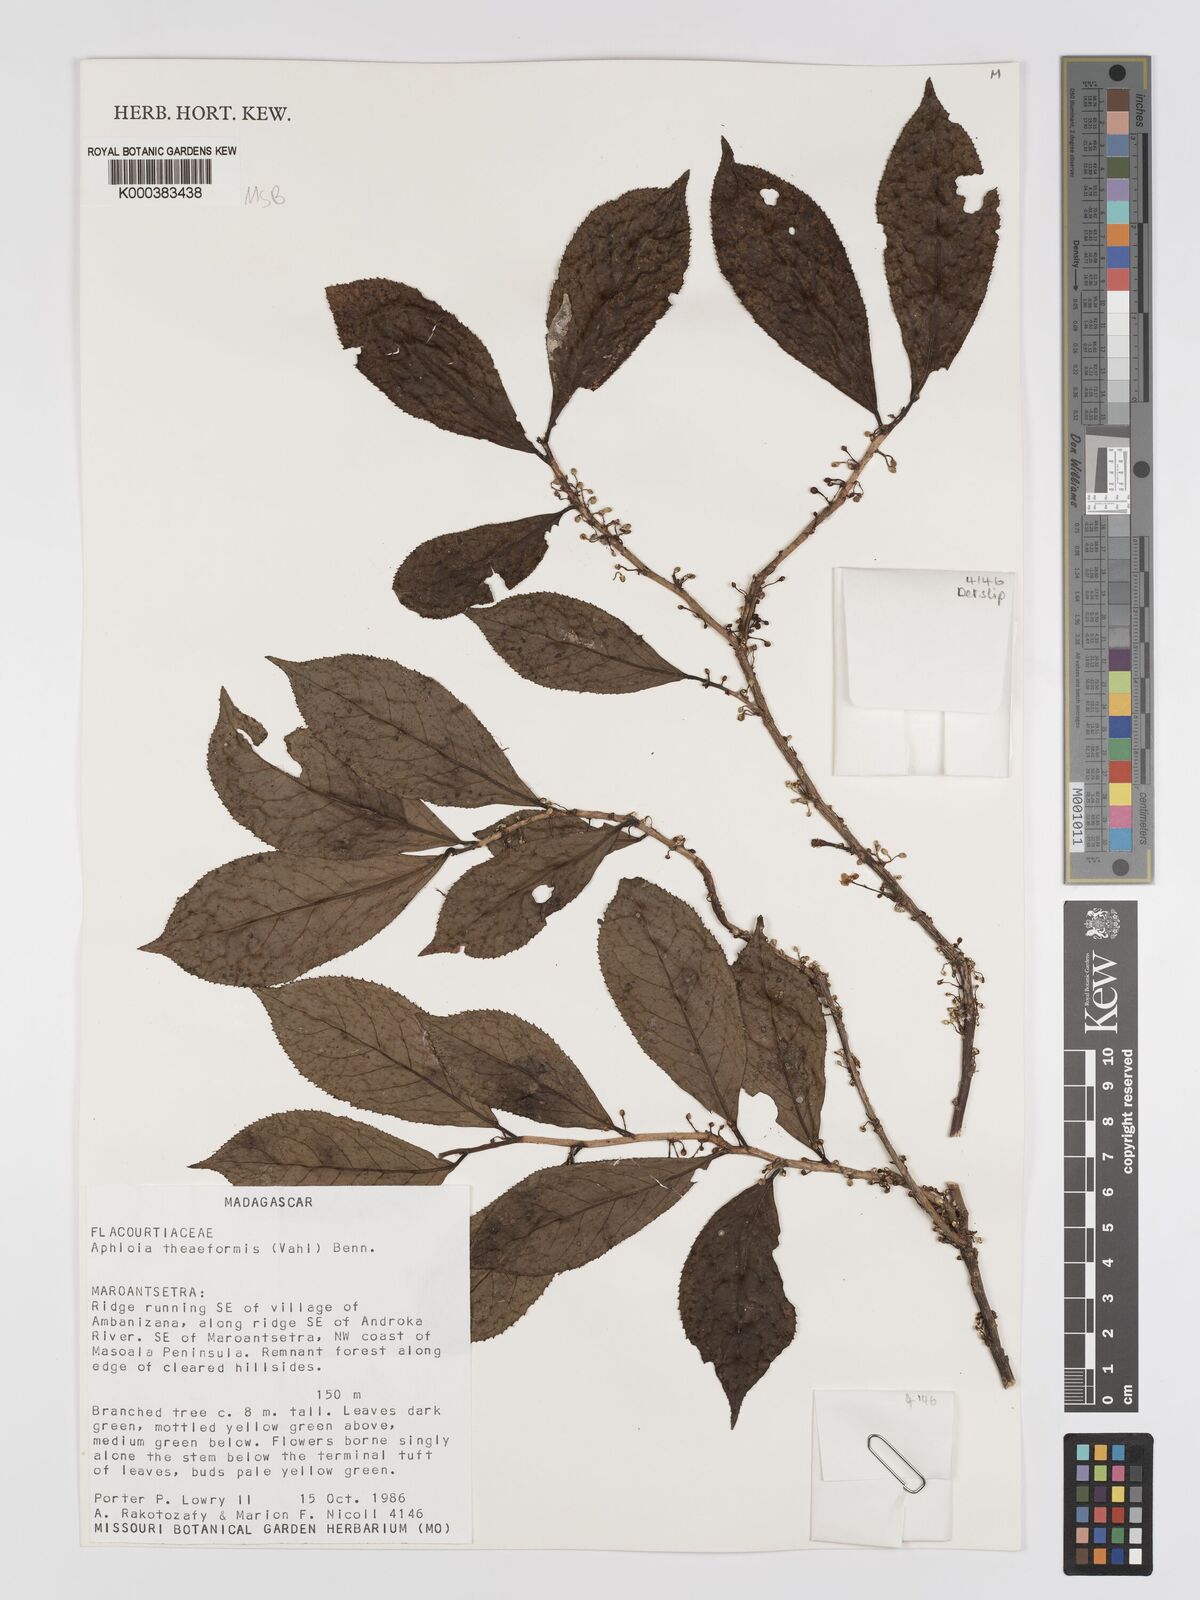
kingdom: Plantae
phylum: Tracheophyta
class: Magnoliopsida
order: Crossosomatales
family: Aphloiaceae
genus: Aphloia
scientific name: Aphloia theiformis
